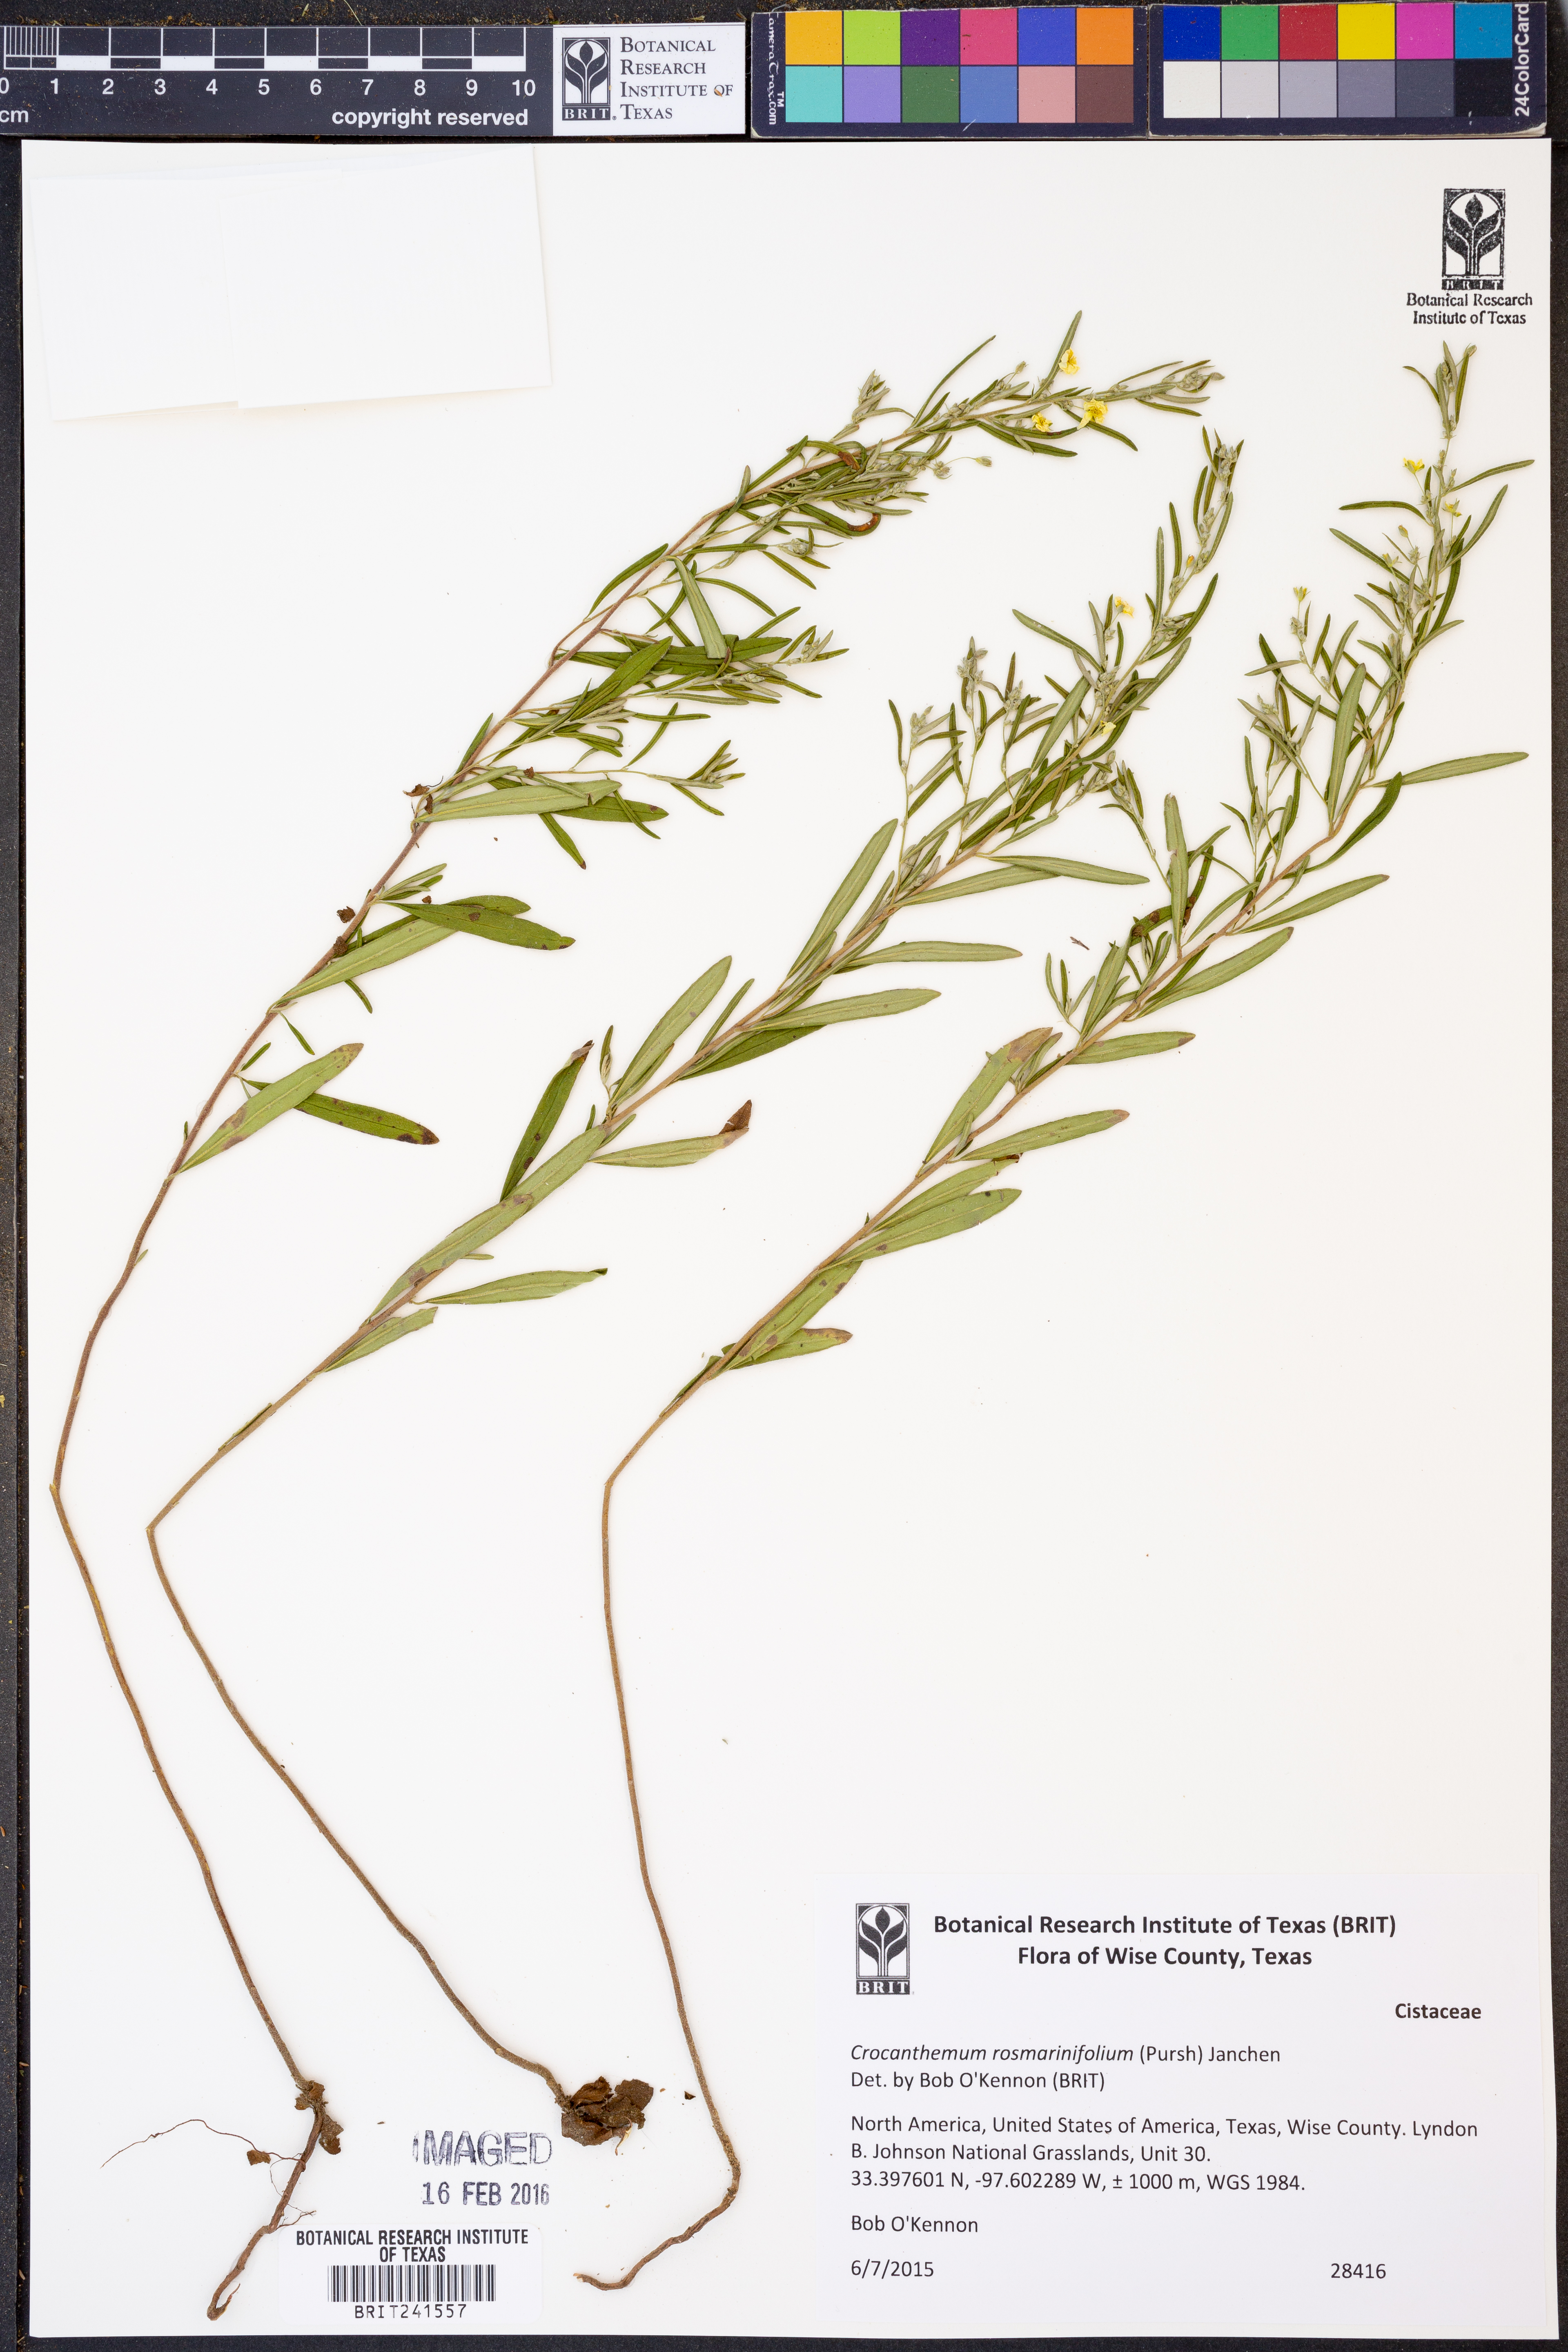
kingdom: Plantae
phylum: Tracheophyta
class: Magnoliopsida
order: Malvales
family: Cistaceae
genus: Crocanthemum
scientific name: Crocanthemum rosmarinifolium
